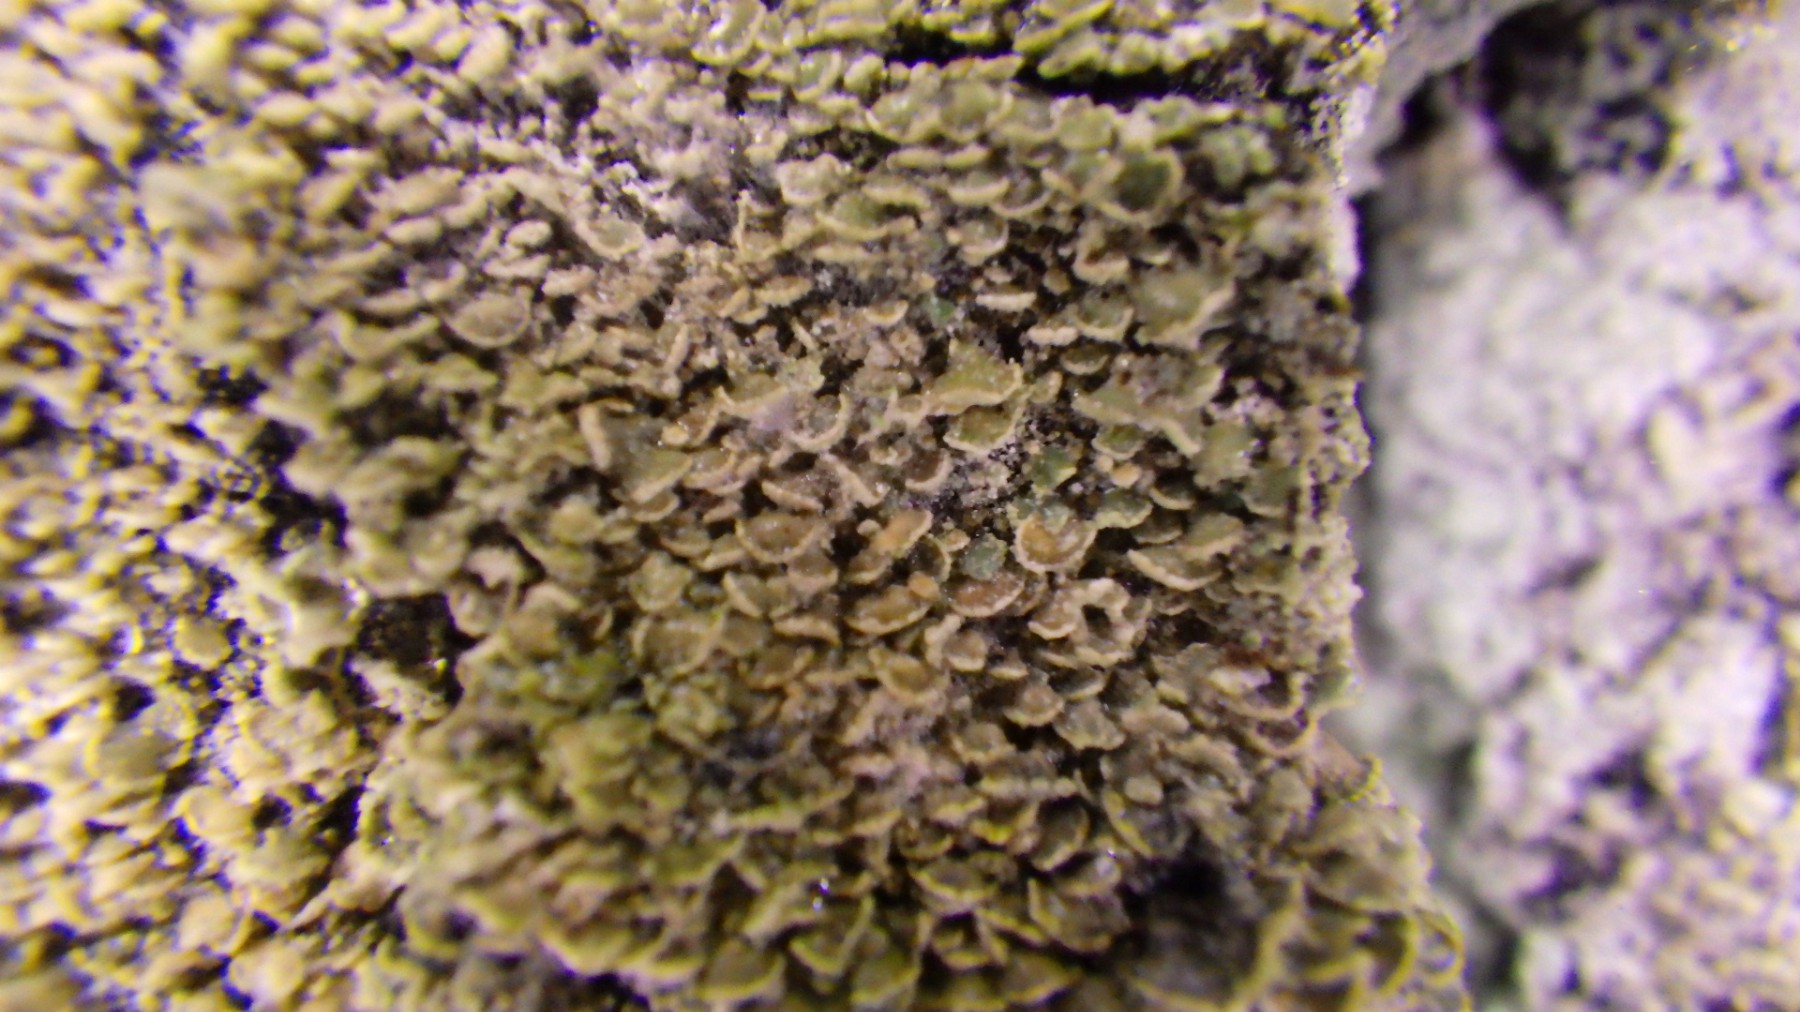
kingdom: Fungi
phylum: Ascomycota
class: Lecanoromycetes
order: Umbilicariales
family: Ophioparmaceae
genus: Hypocenomyce
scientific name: Hypocenomyce scalaris
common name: småskællet muslinglav
